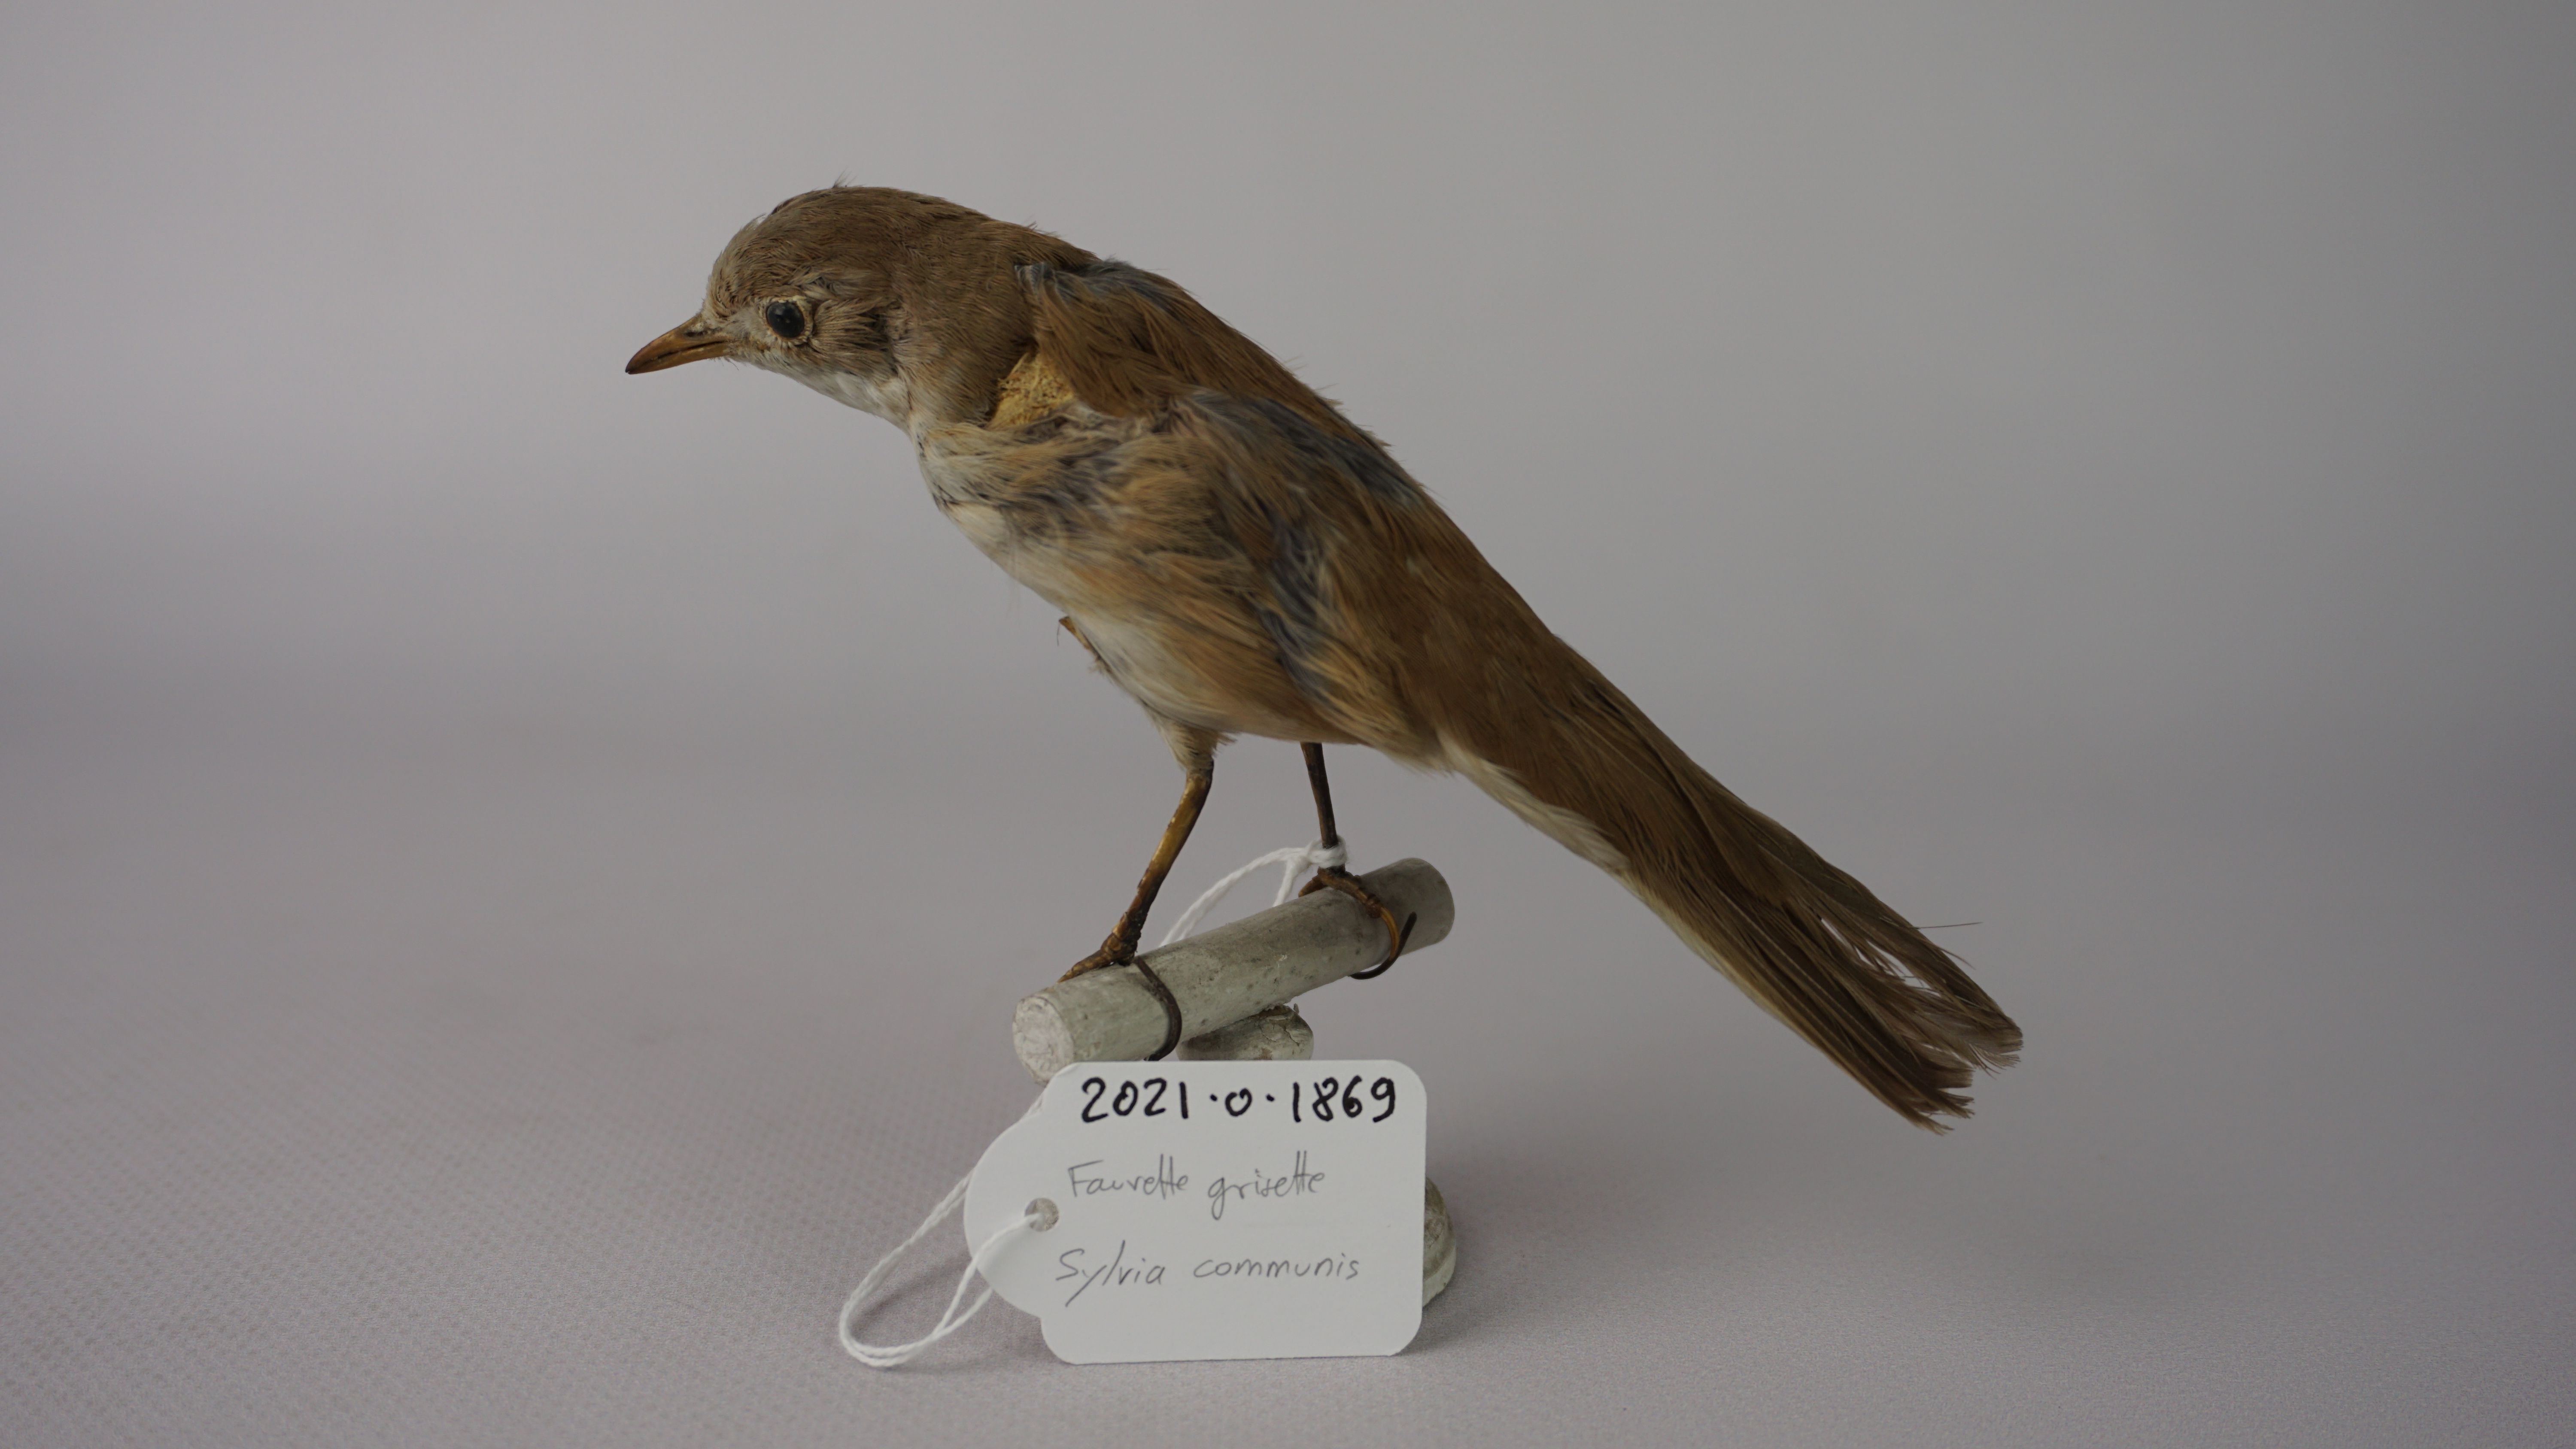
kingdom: Animalia
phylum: Chordata
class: Aves
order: Passeriformes
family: Sylviidae
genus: Sylvia
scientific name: Sylvia communis
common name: Common whitethroat
